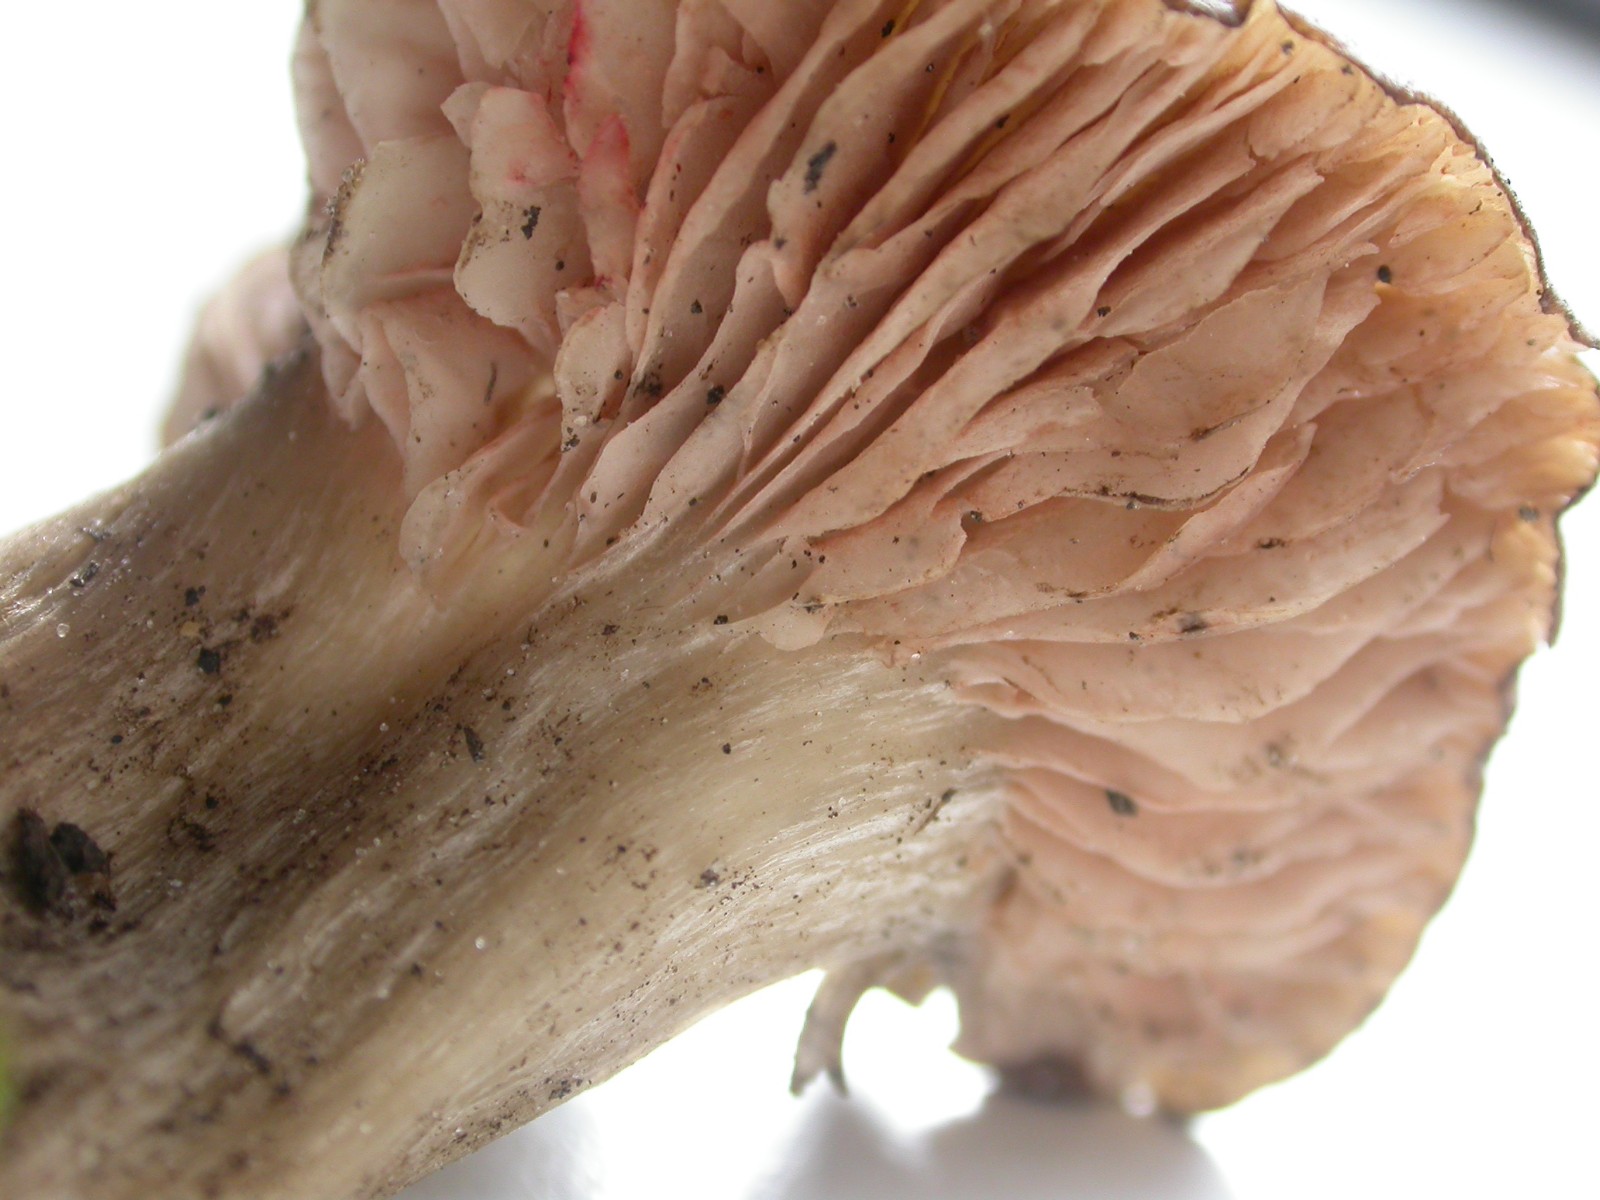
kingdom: Fungi
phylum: Basidiomycota
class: Agaricomycetes
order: Agaricales
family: Entolomataceae
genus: Entoloma
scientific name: Entoloma sordidulum
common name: smudsig rødblad
